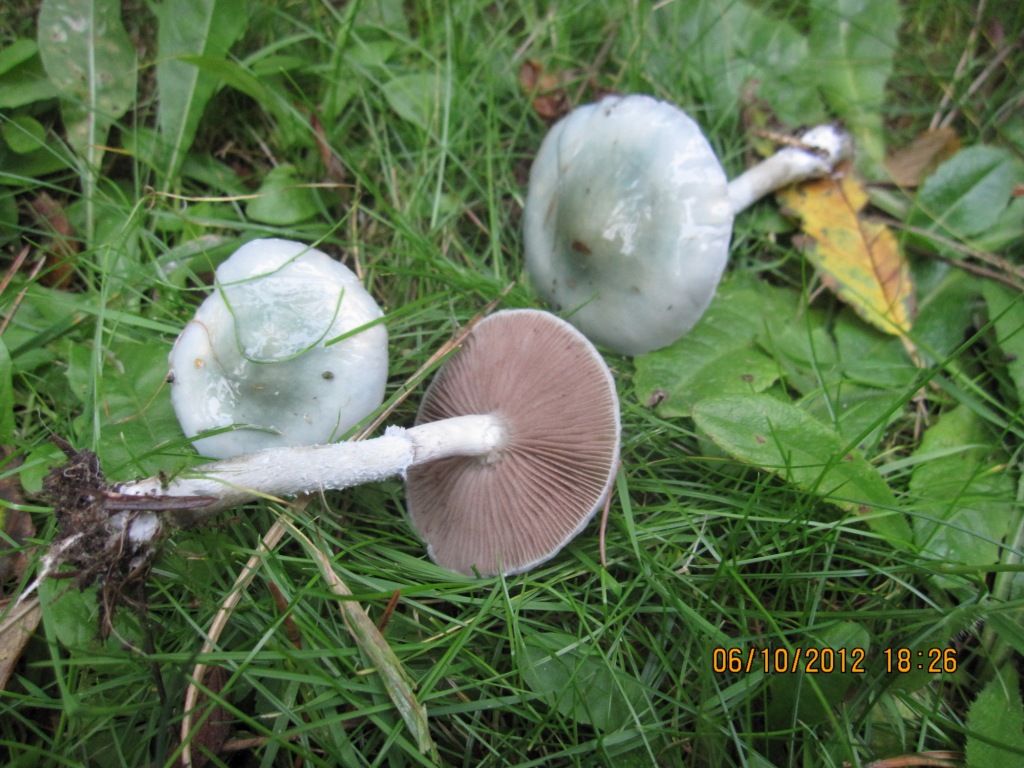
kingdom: Fungi
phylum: Basidiomycota
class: Agaricomycetes
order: Agaricales
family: Strophariaceae
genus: Stropharia
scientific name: Stropharia cyanea
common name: blågrøn bredblad
